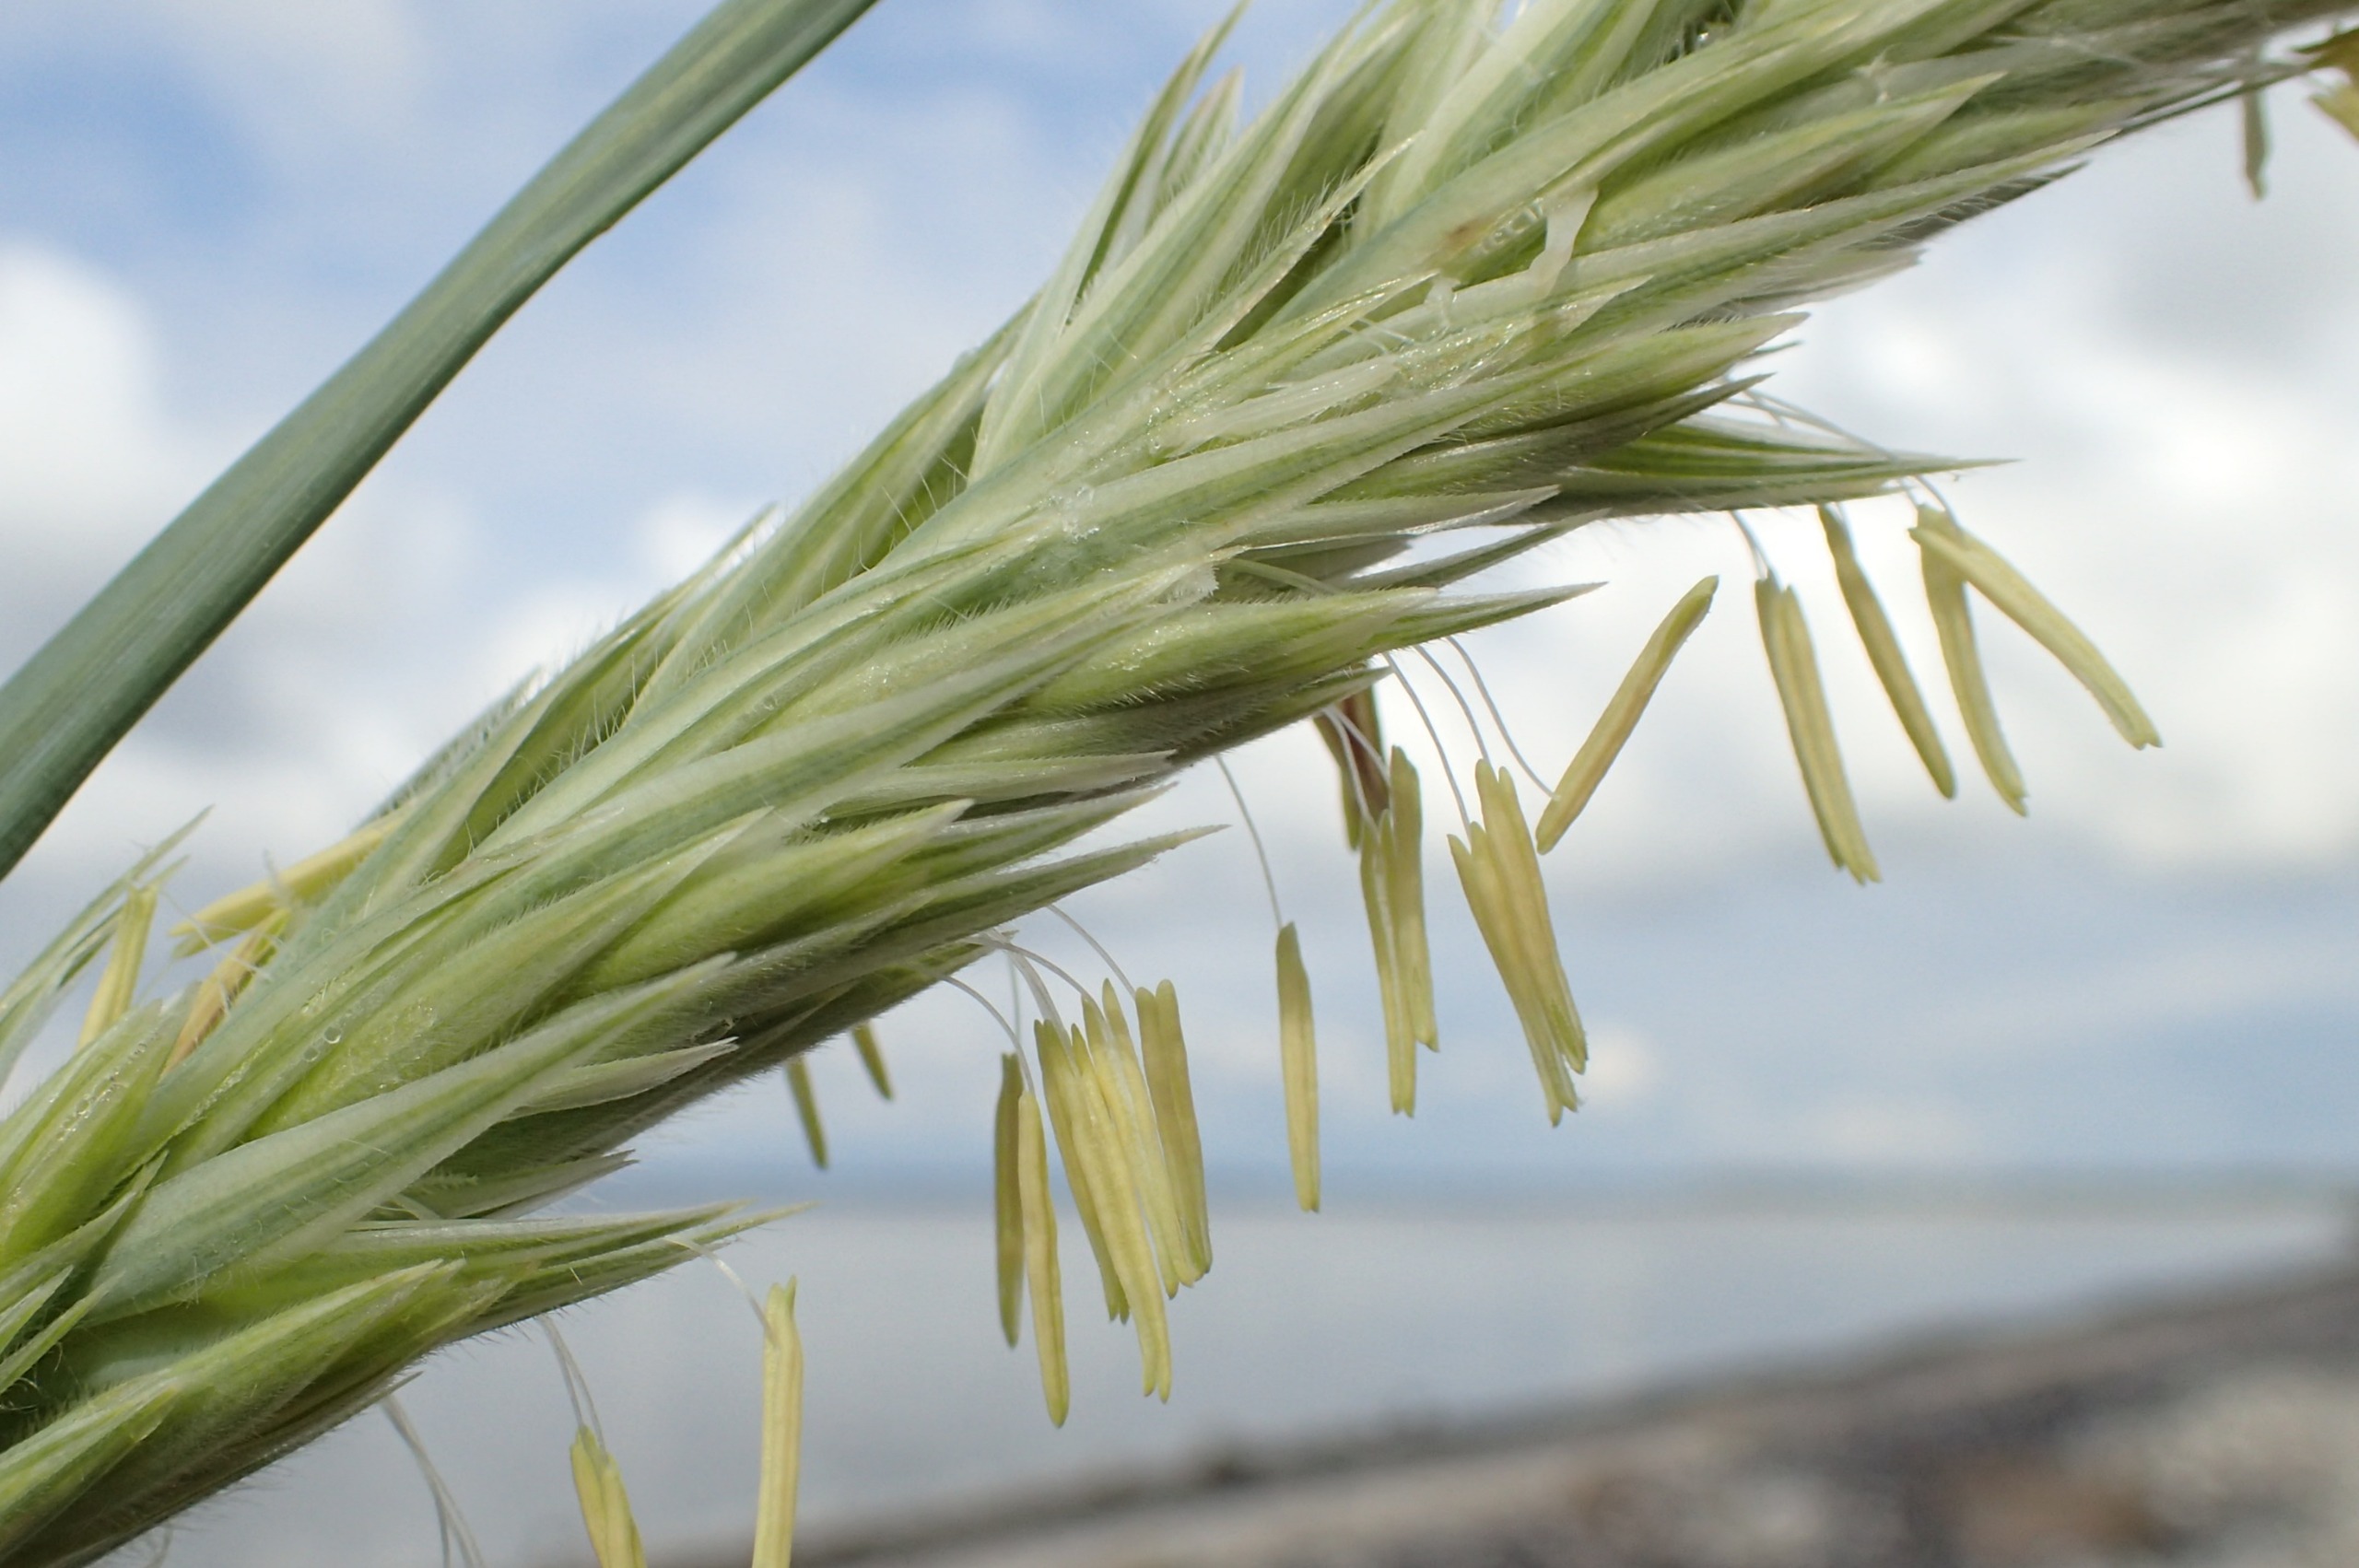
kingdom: Plantae
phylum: Tracheophyta
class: Liliopsida
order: Poales
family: Poaceae
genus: Leymus
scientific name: Leymus arenarius
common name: Marehalm
